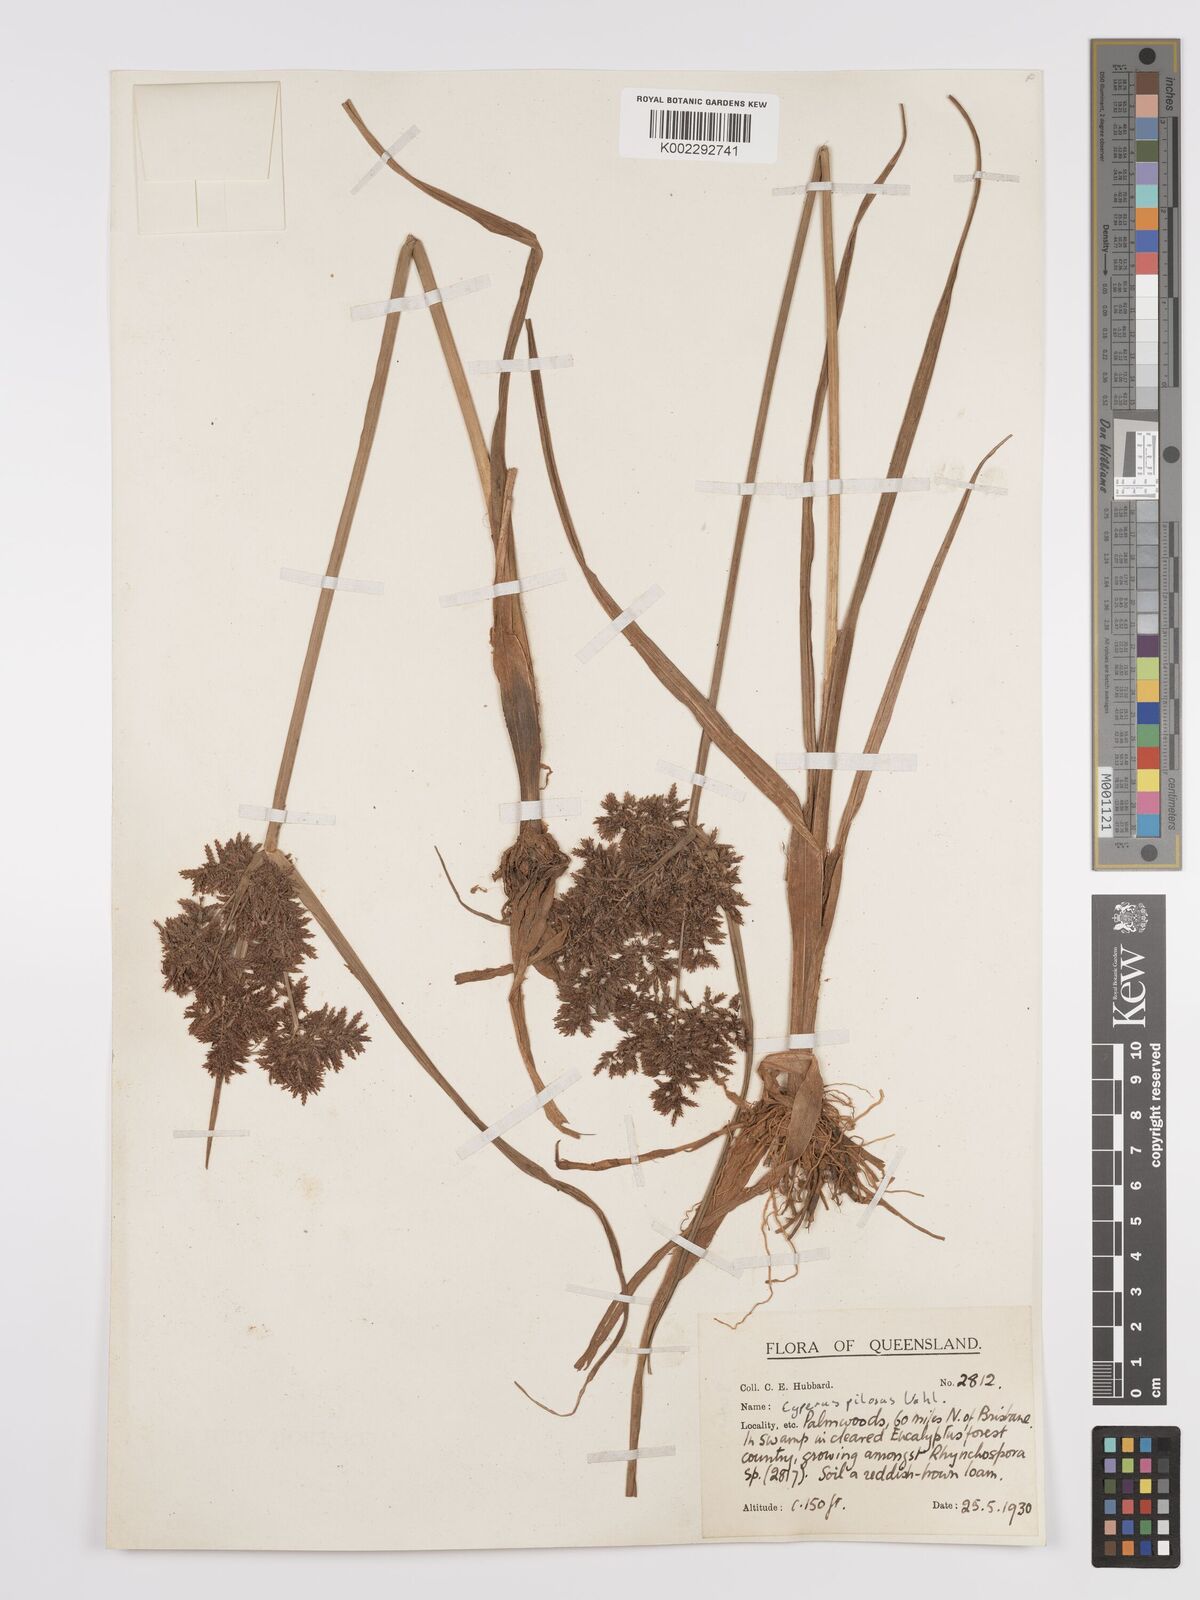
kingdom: Plantae
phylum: Tracheophyta
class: Liliopsida
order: Poales
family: Cyperaceae
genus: Cyperus
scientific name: Cyperus pilosus
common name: Fuzzy flatsedge
